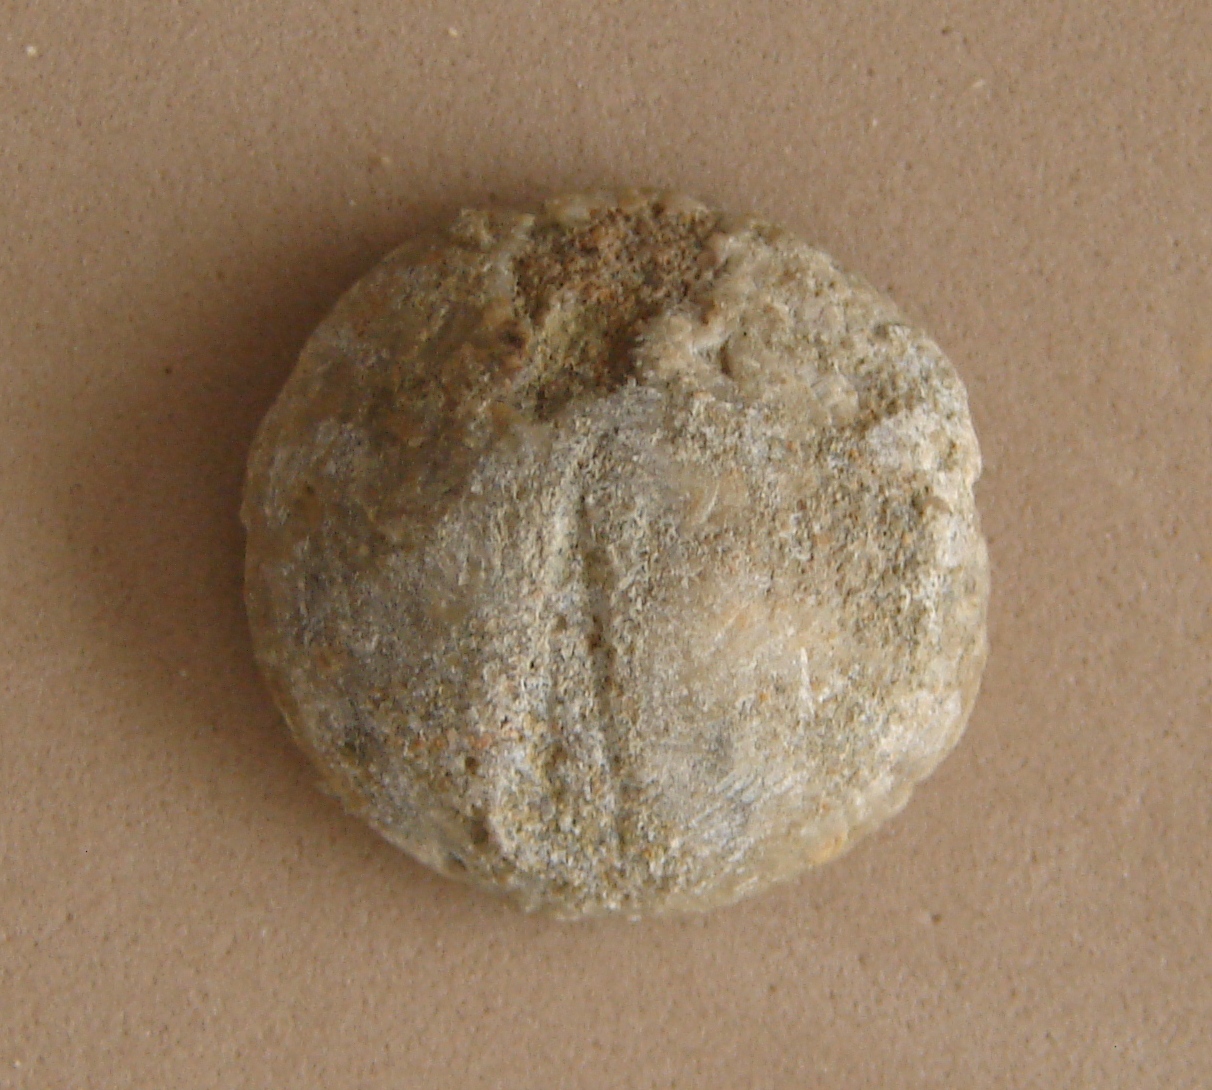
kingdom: Animalia
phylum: Echinodermata
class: Echinoidea
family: Galeropygidae
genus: Galeropygus
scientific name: Galeropygus Hyboclypus agariciformis
